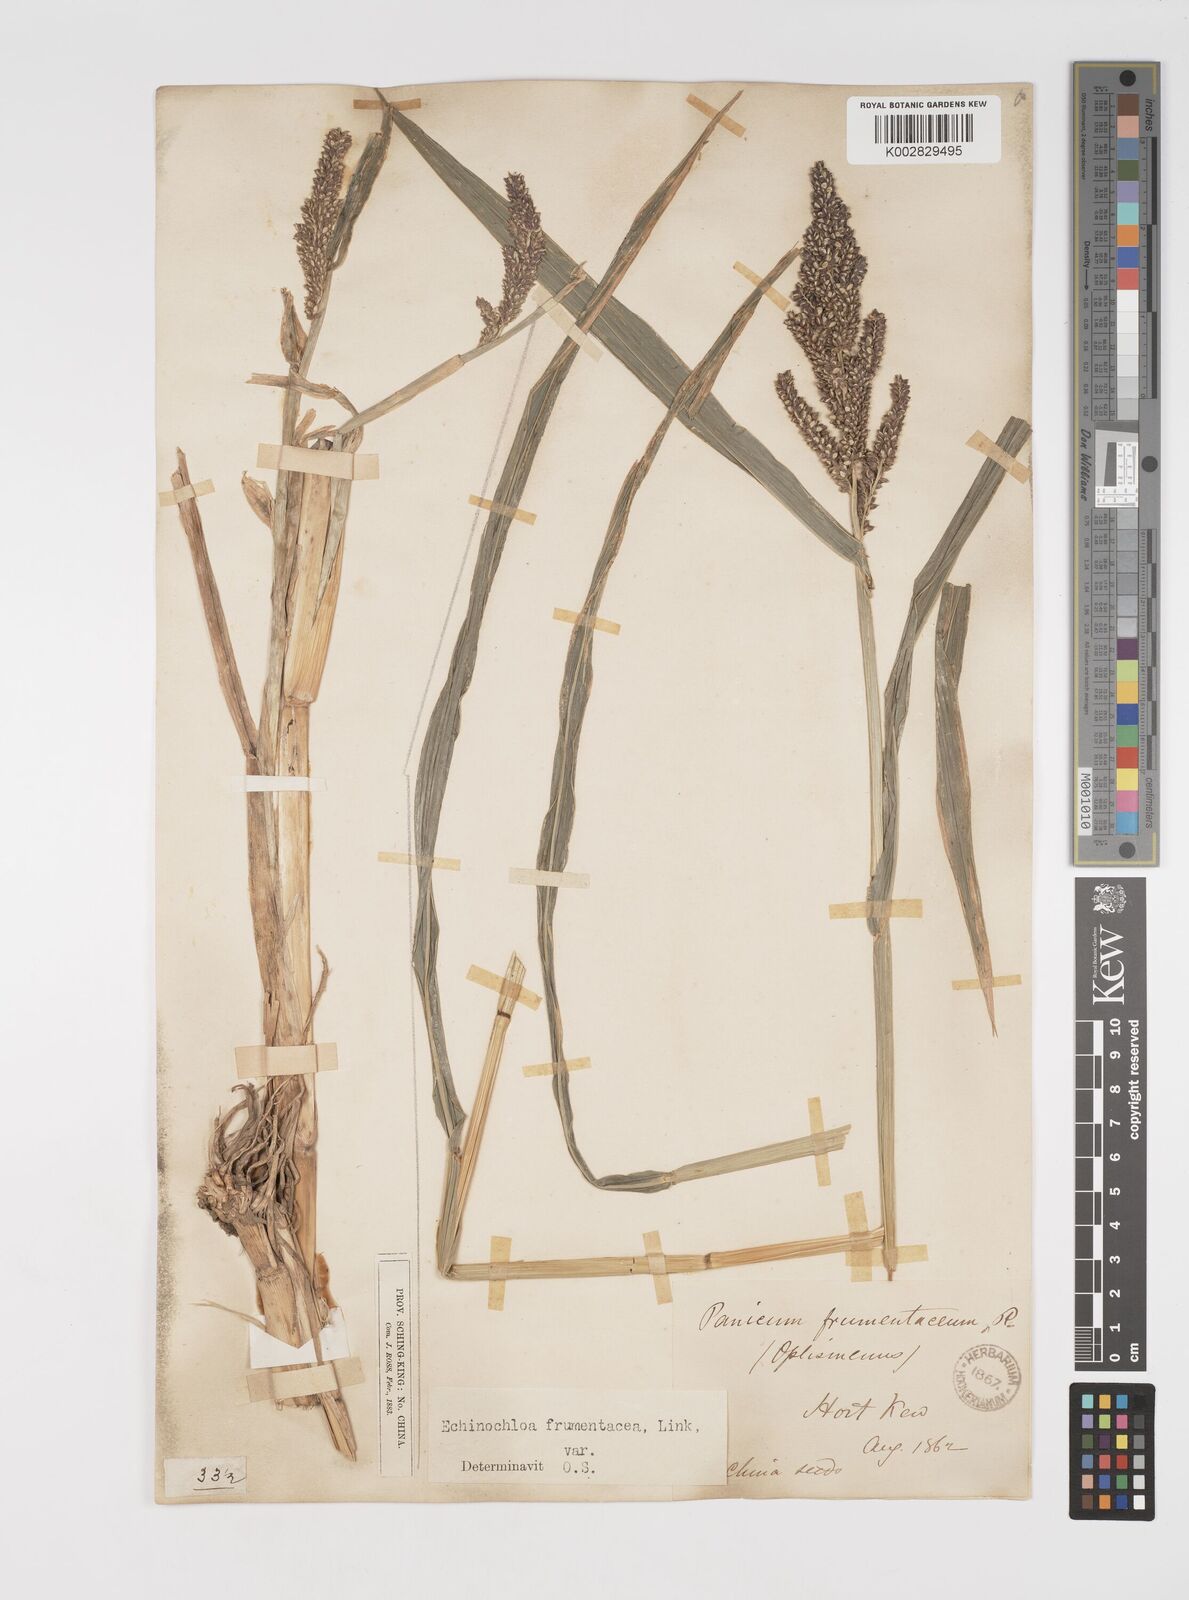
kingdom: Plantae
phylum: Tracheophyta
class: Liliopsida
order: Poales
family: Poaceae
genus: Echinochloa
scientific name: Echinochloa crus-galli
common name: Cockspur
